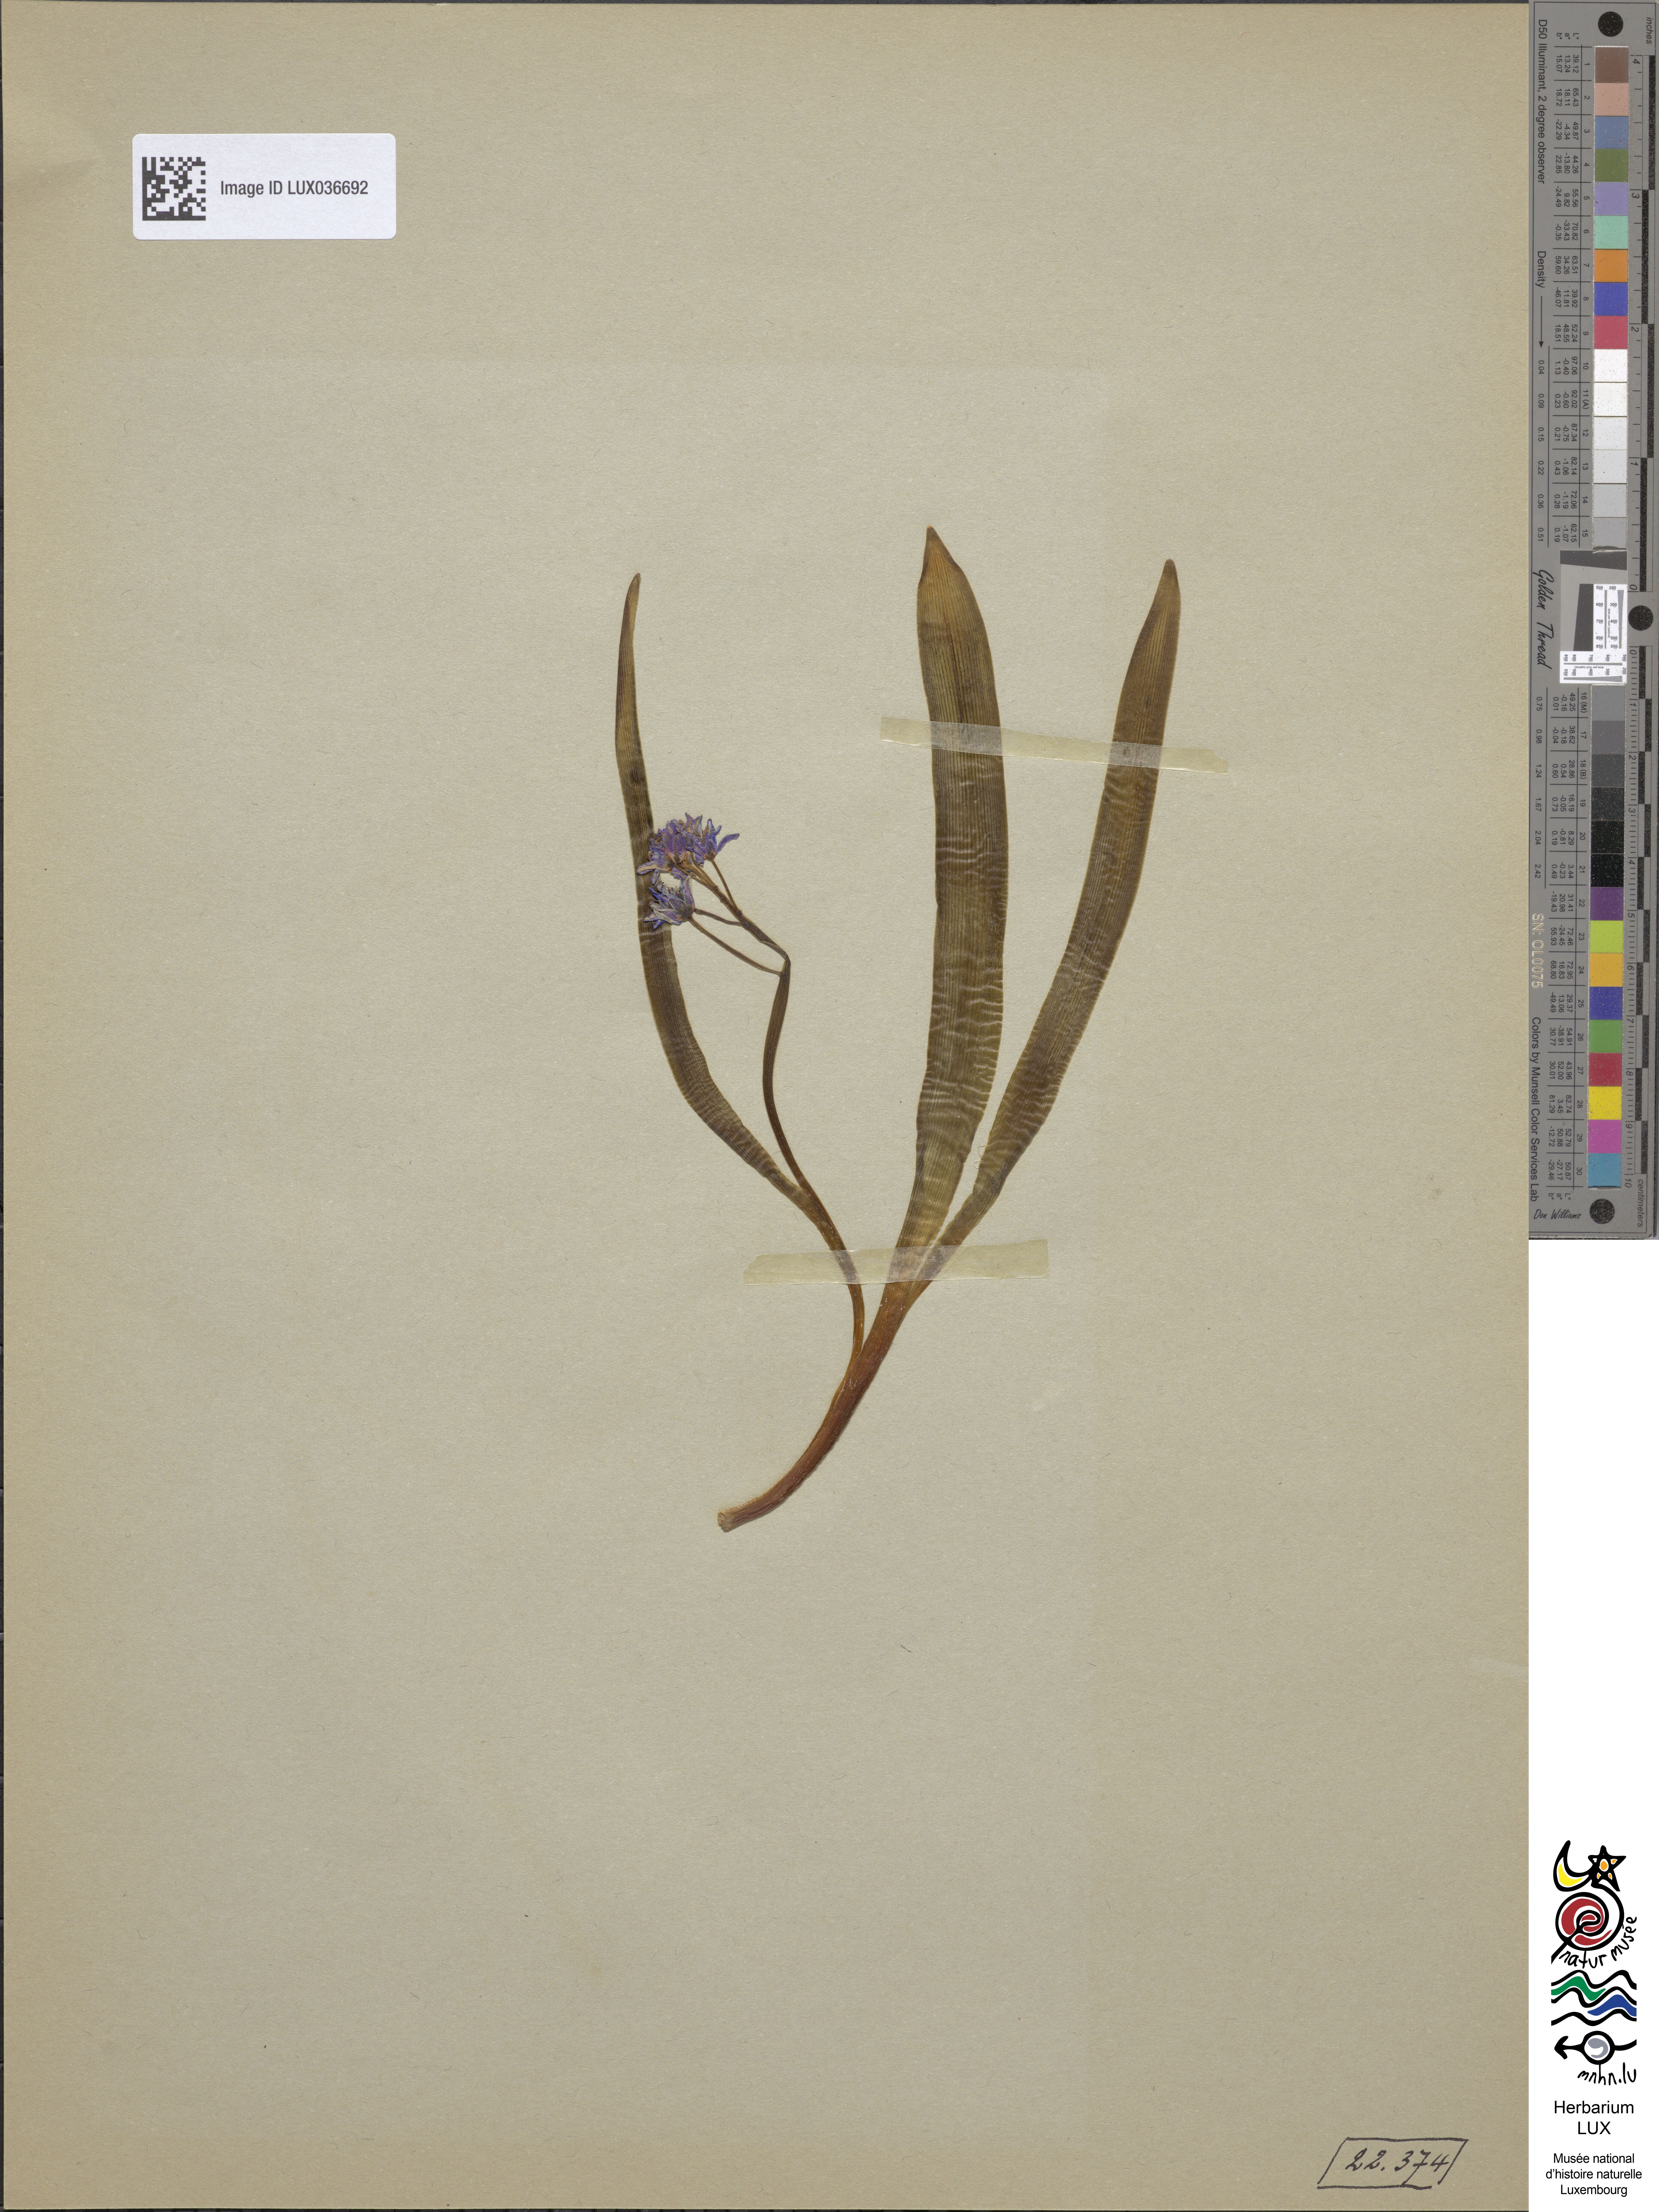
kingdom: Plantae
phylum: Tracheophyta
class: Liliopsida
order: Asparagales
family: Asparagaceae
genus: Scilla
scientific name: Scilla bifolia
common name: Alpine squill
